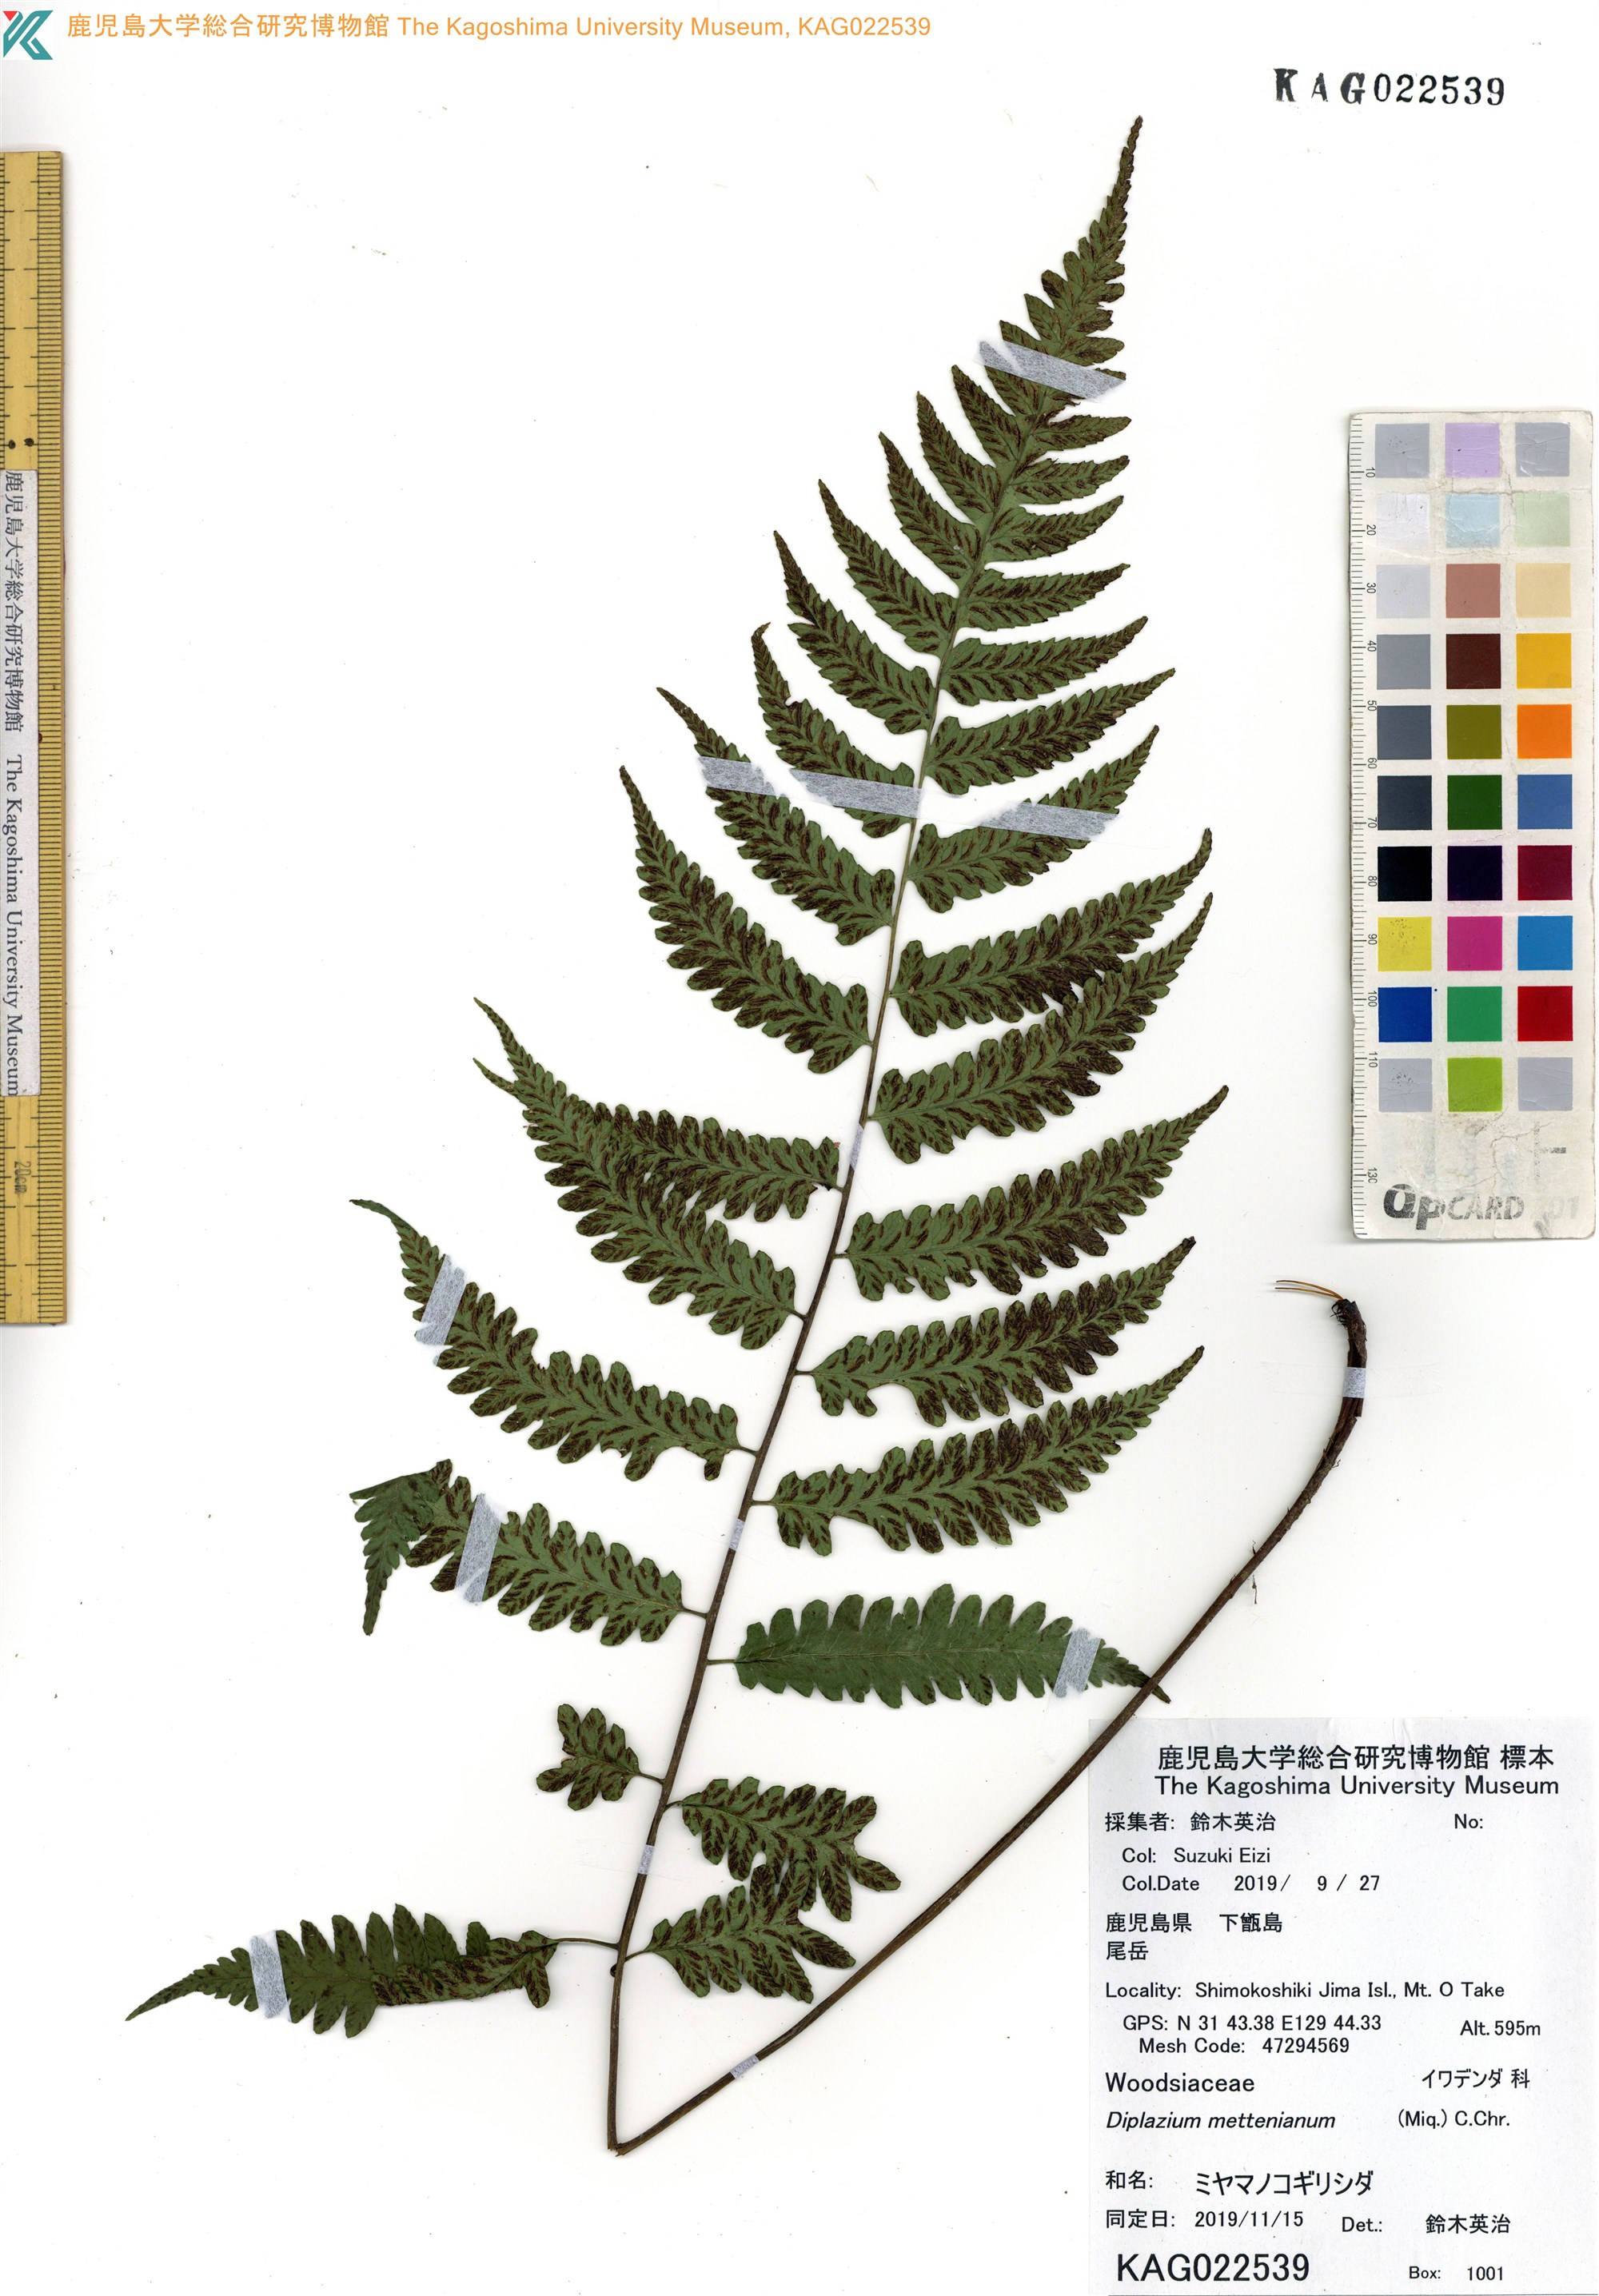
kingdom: Plantae
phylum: Tracheophyta
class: Polypodiopsida
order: Polypodiales
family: Athyriaceae
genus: Diplazium
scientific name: Diplazium mettenianum
